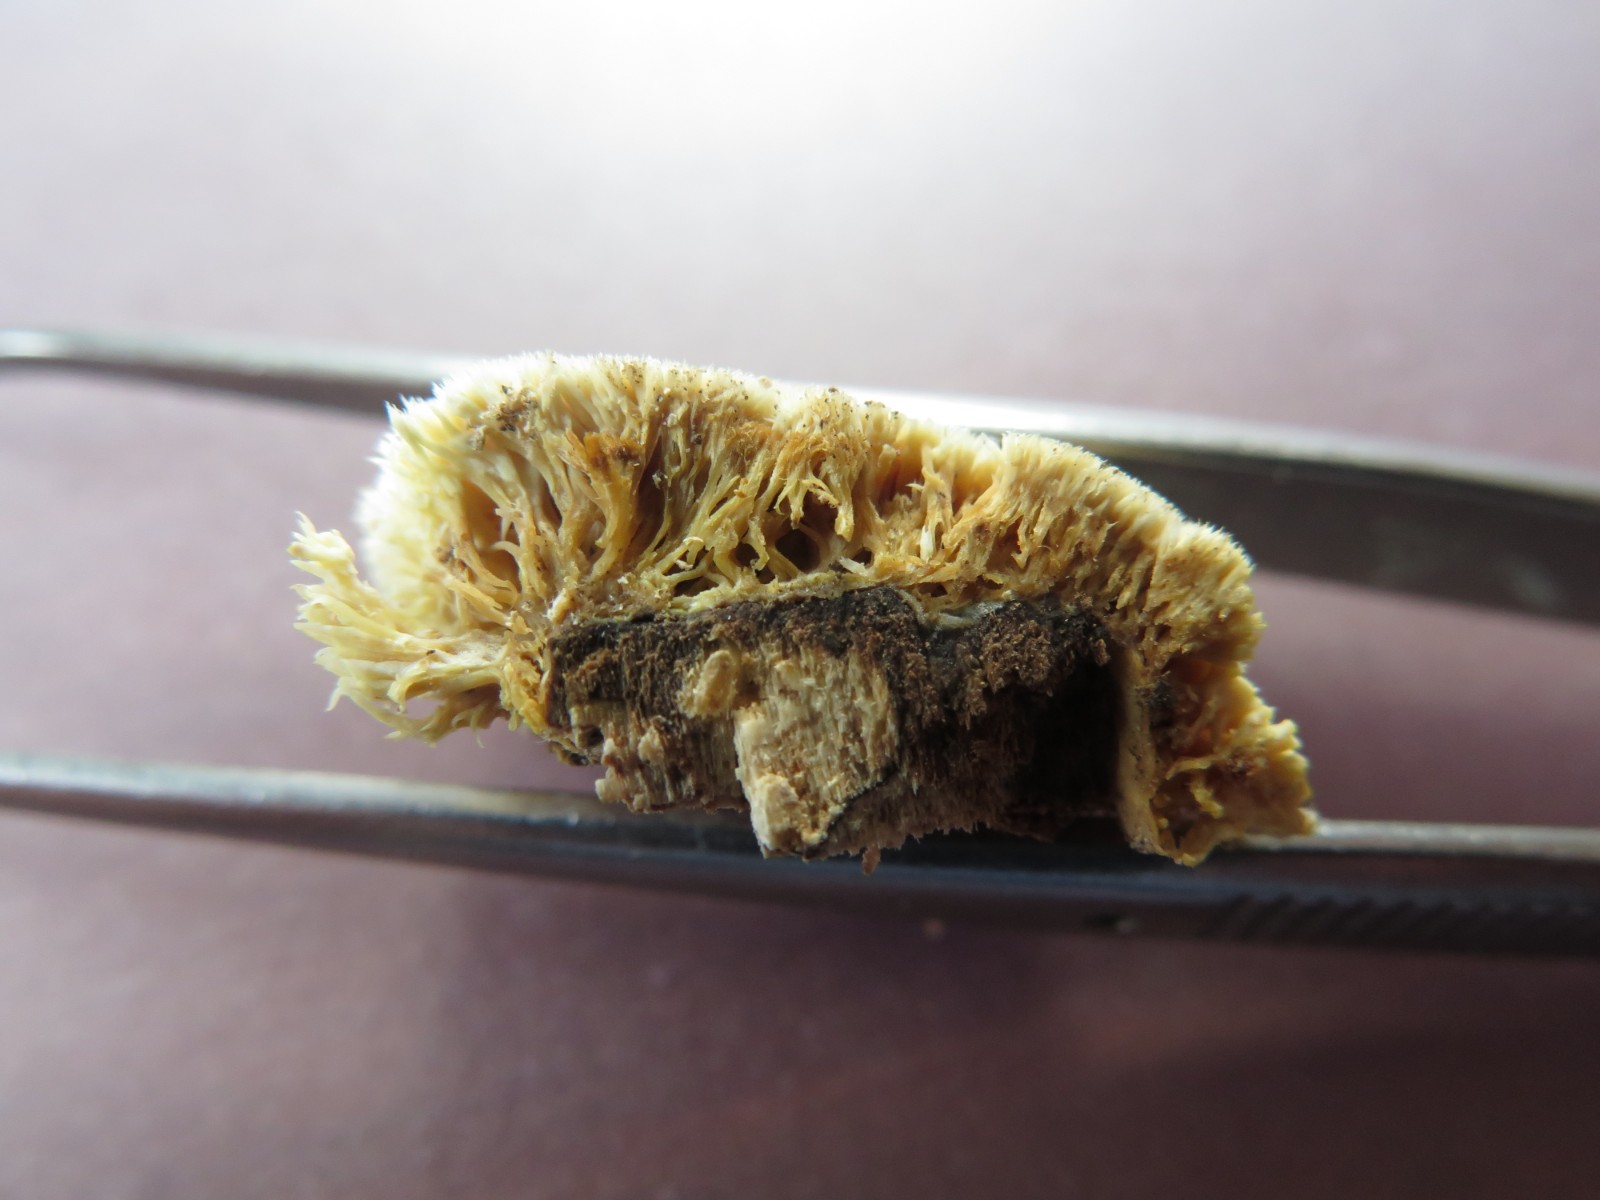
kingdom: Fungi
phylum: Basidiomycota
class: Agaricomycetes
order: Corticiales
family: Corticiaceae
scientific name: Corticiaceae
